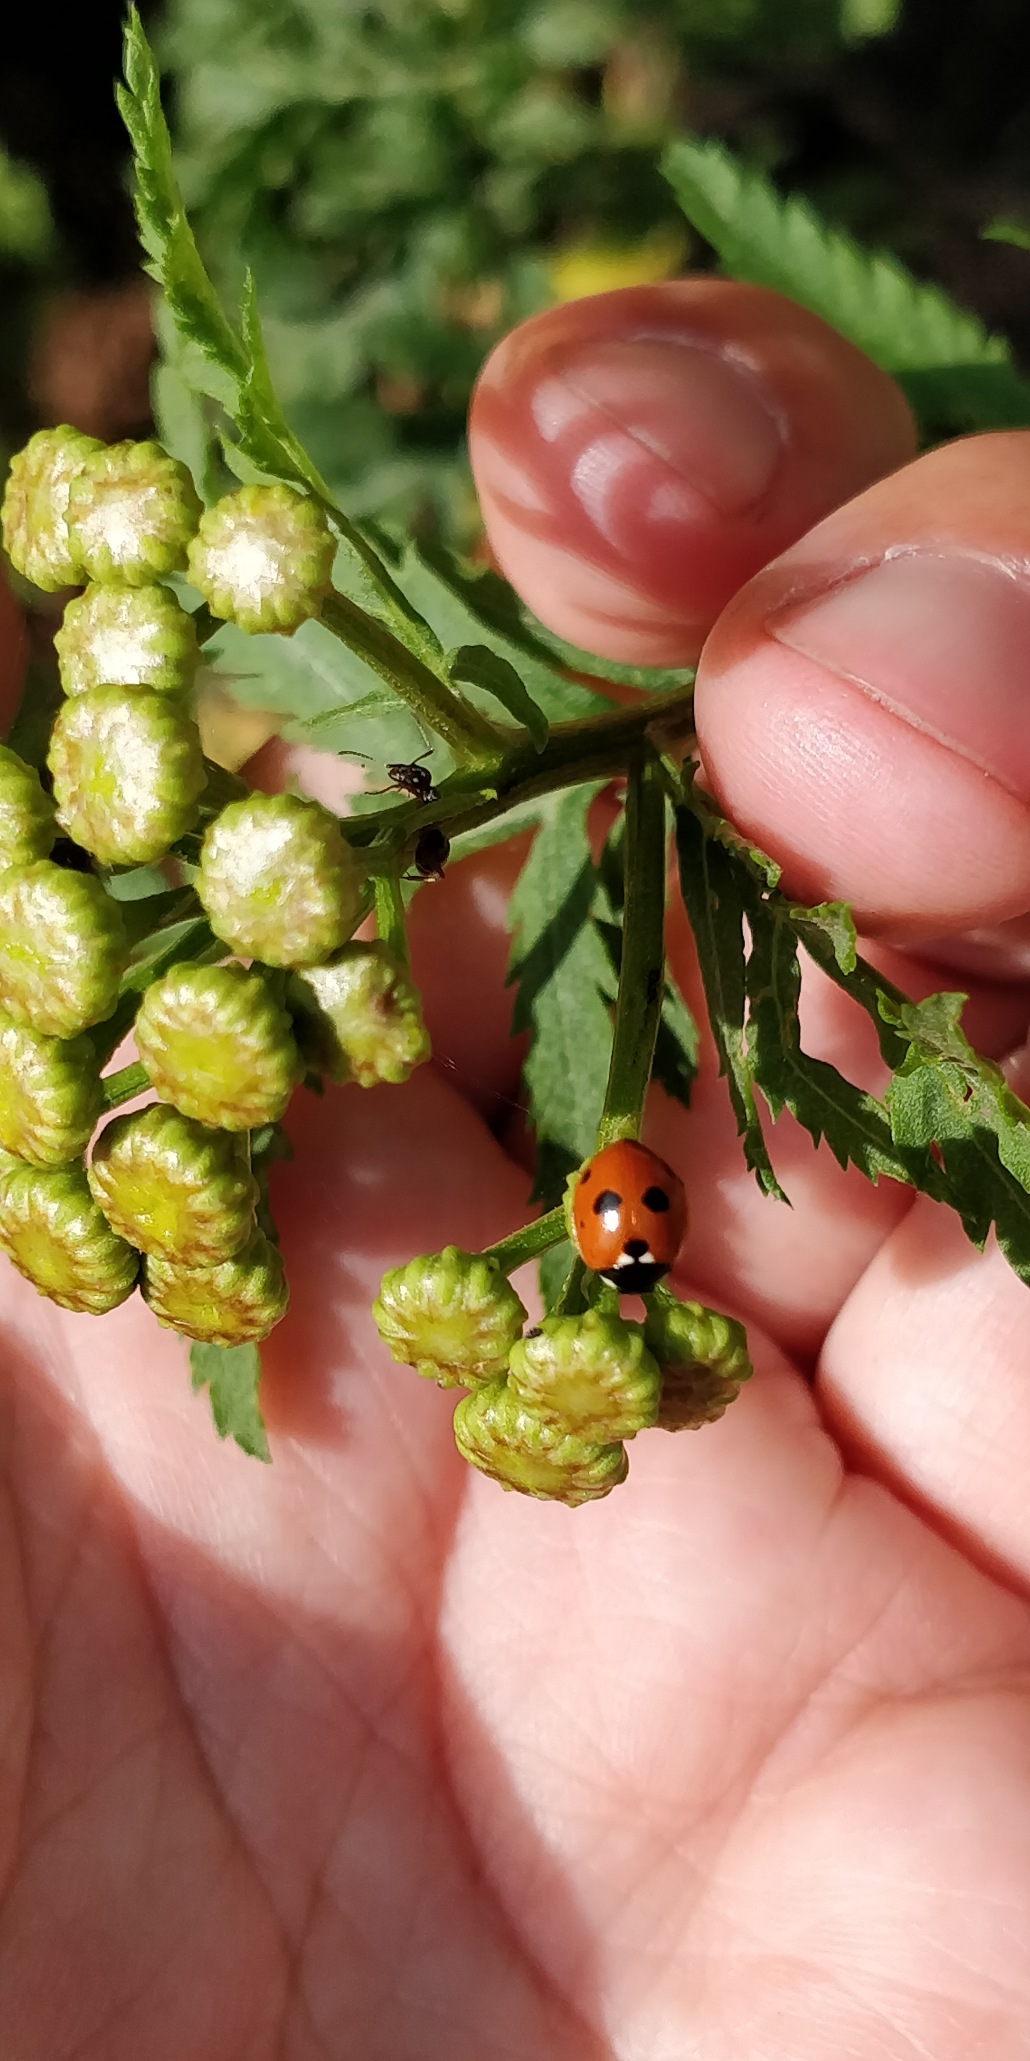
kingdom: Animalia
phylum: Arthropoda
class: Insecta
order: Coleoptera
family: Coccinellidae
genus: Coccinella
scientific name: Coccinella septempunctata
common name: Syvplettet mariehøne
